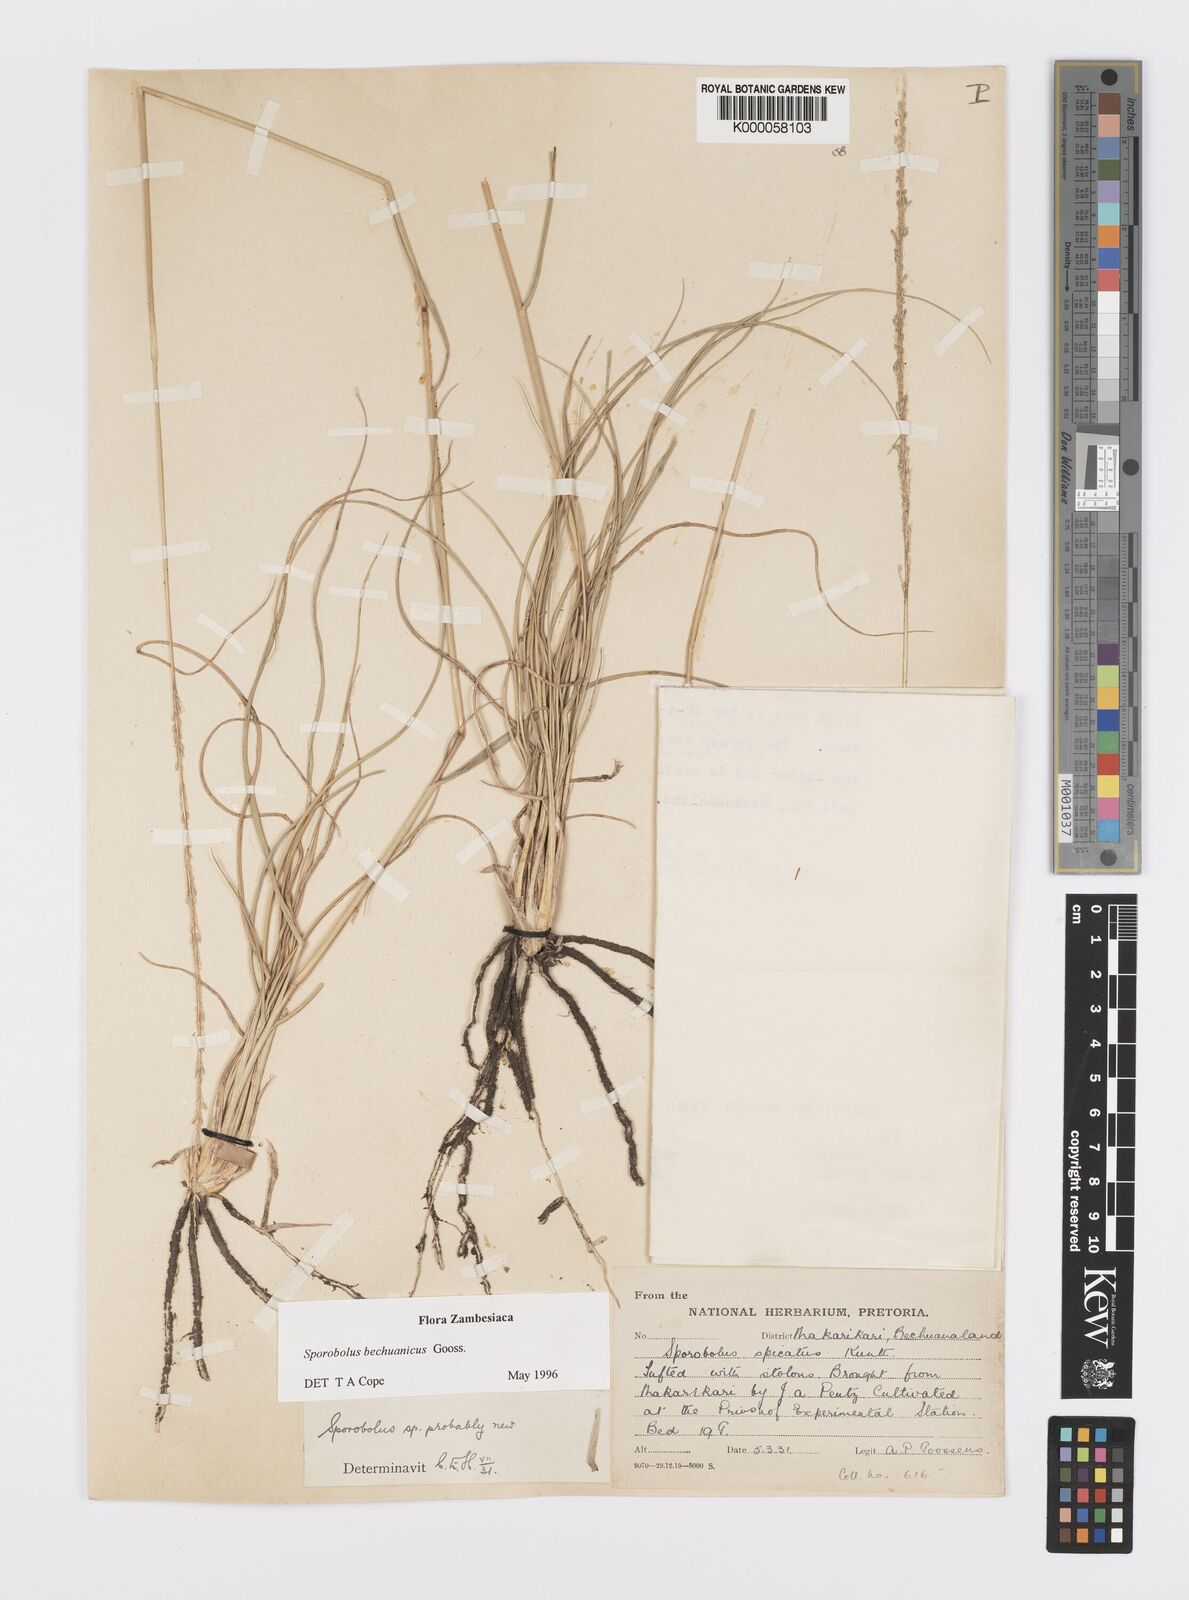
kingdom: Plantae
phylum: Tracheophyta
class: Liliopsida
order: Poales
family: Poaceae
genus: Sporobolus
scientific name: Sporobolus bechuanicus
